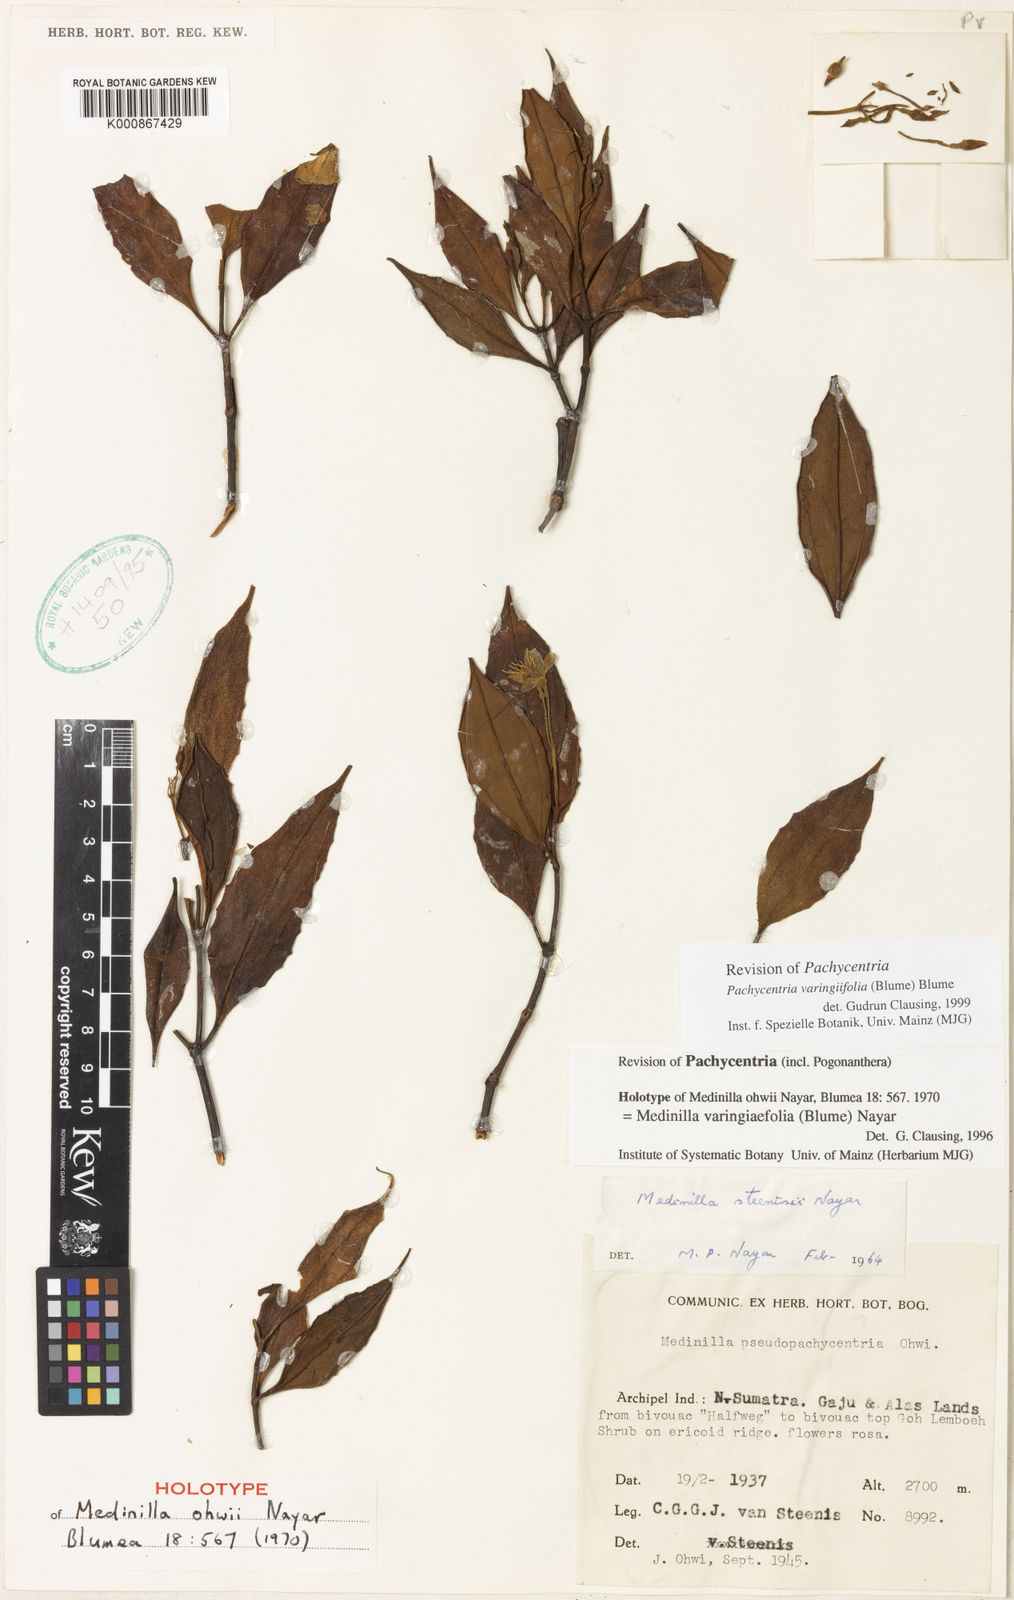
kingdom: Plantae
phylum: Tracheophyta
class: Magnoliopsida
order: Myrtales
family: Melastomataceae
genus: Pachycentria
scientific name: Pachycentria varingaefolia
